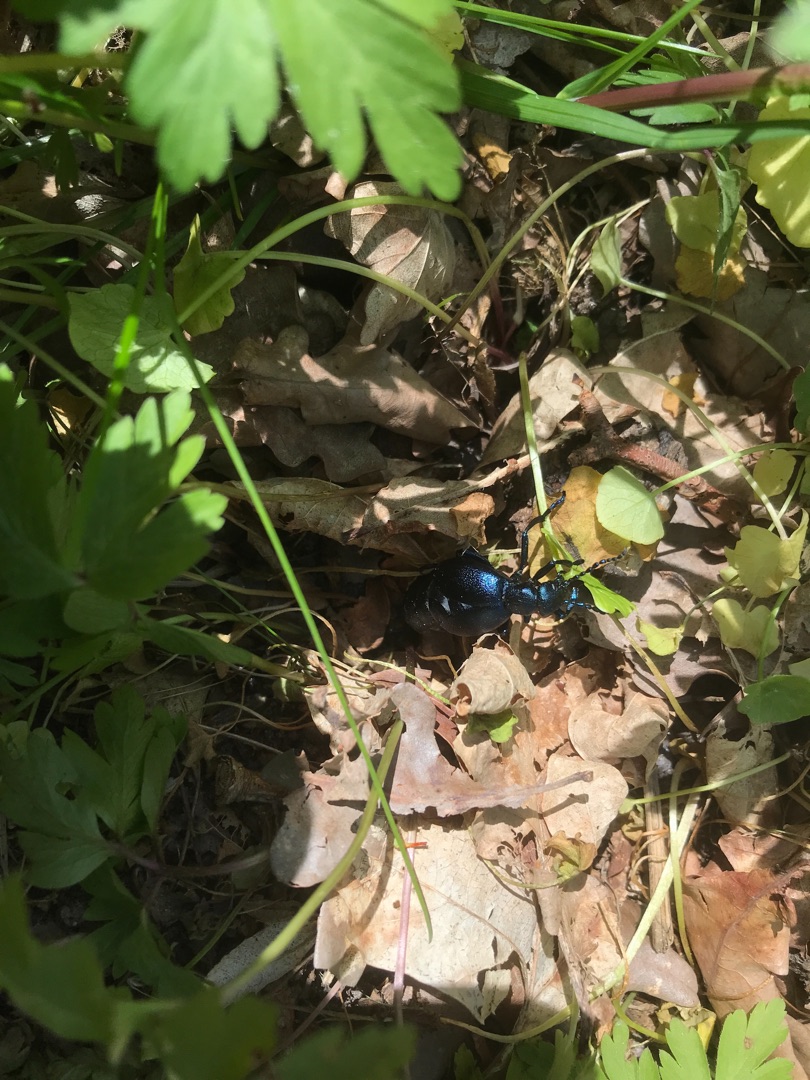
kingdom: Animalia
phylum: Arthropoda
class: Insecta
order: Coleoptera
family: Meloidae
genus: Meloe
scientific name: Meloe violaceus
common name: Blå oliebille
